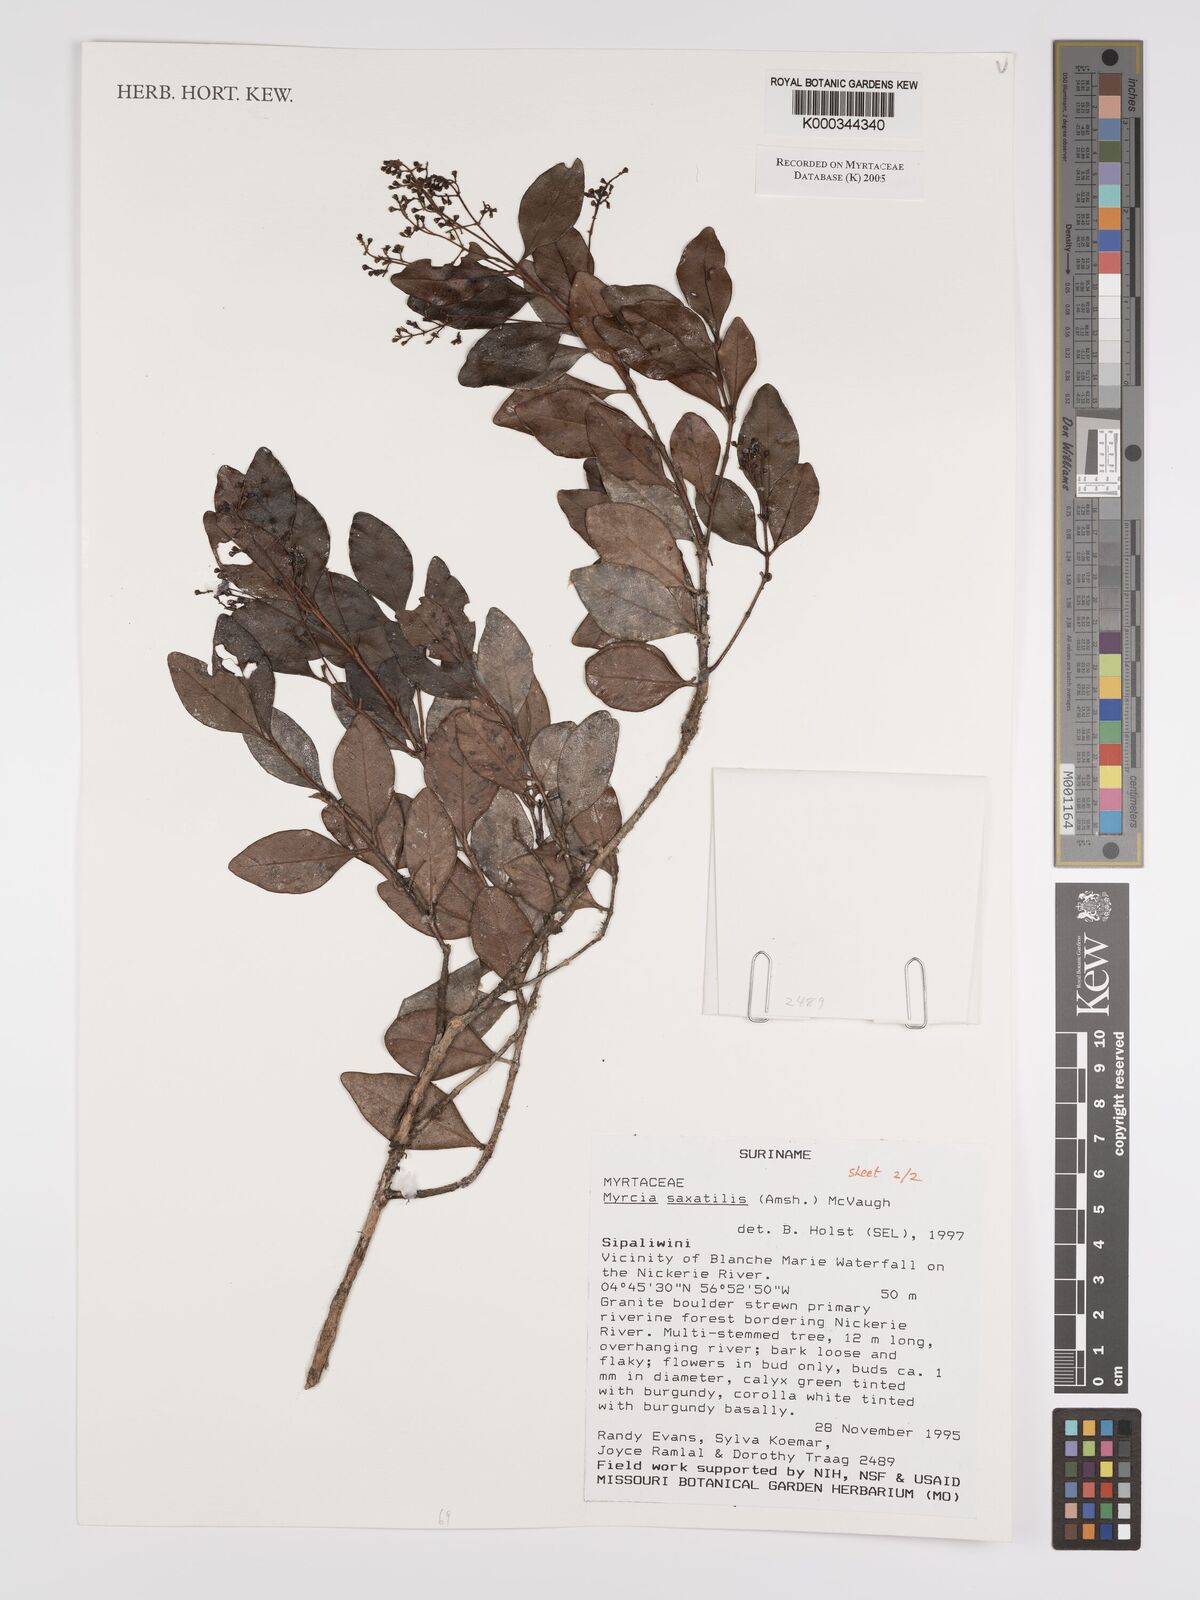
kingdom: Plantae
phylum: Tracheophyta
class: Magnoliopsida
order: Myrtales
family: Myrtaceae
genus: Myrcia
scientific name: Myrcia saxatilis
